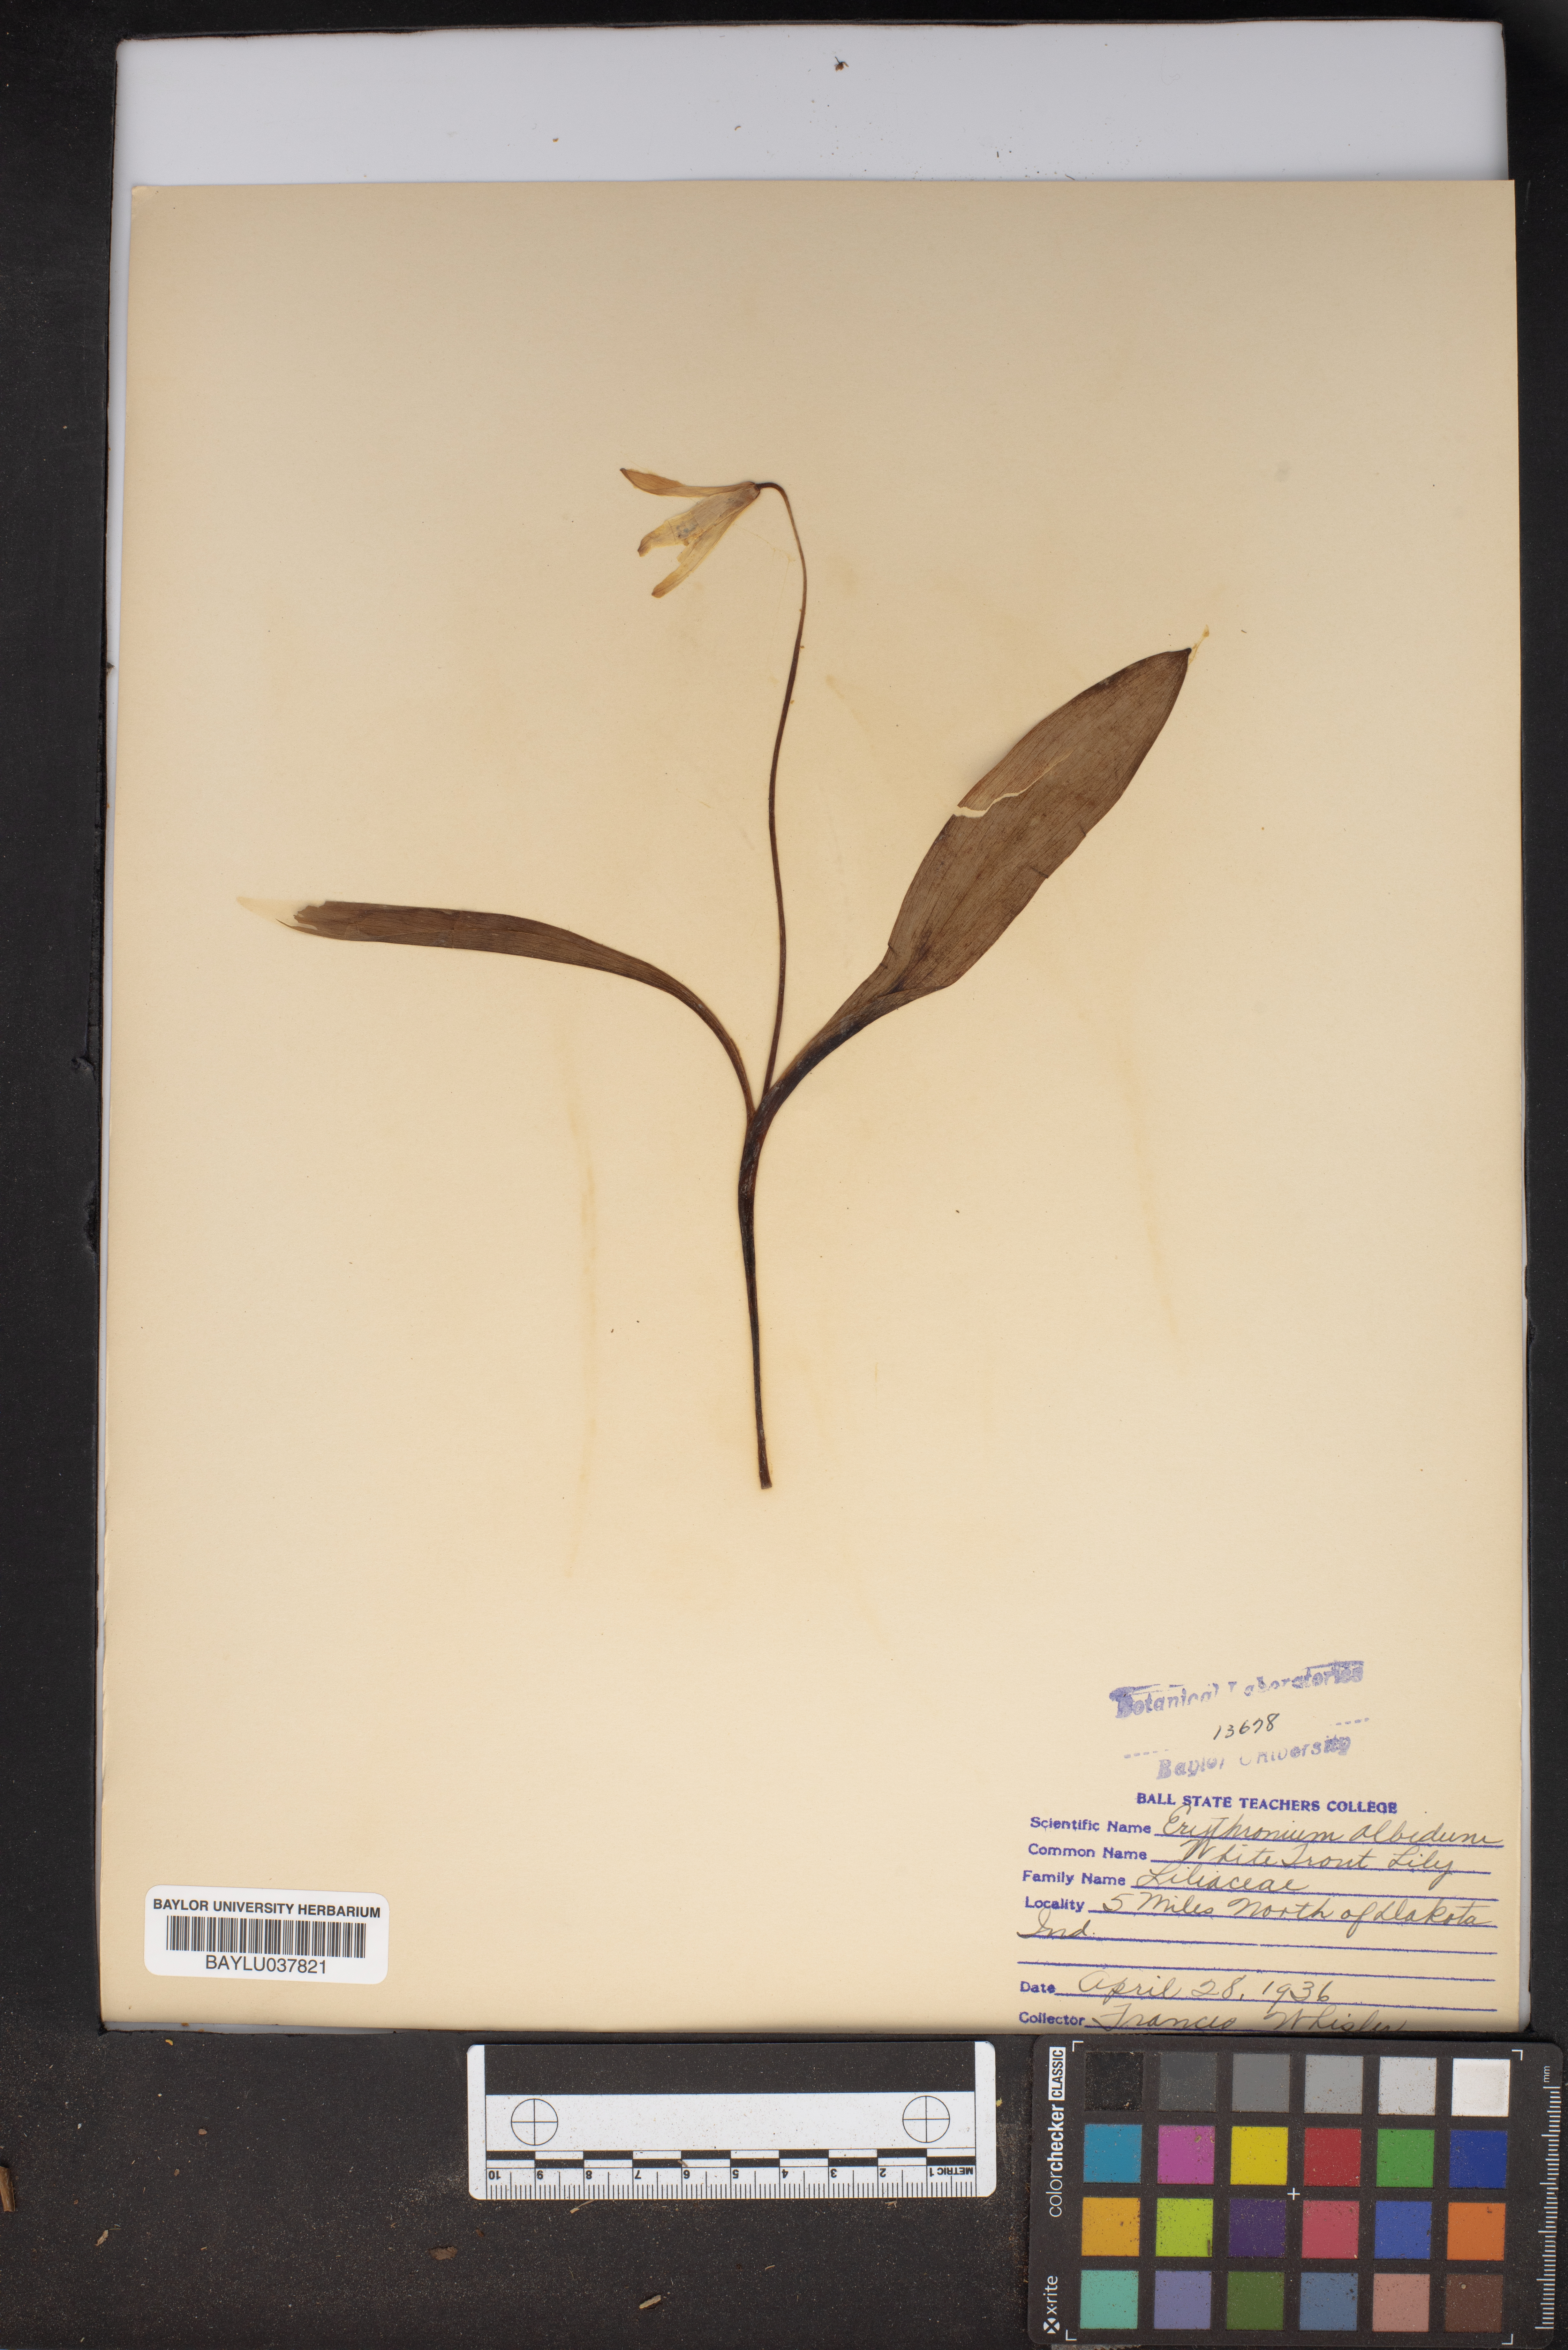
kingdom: Plantae
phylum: Tracheophyta
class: Liliopsida
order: Liliales
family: Liliaceae
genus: Erythronium
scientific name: Erythronium albidum
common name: White trout-lily
